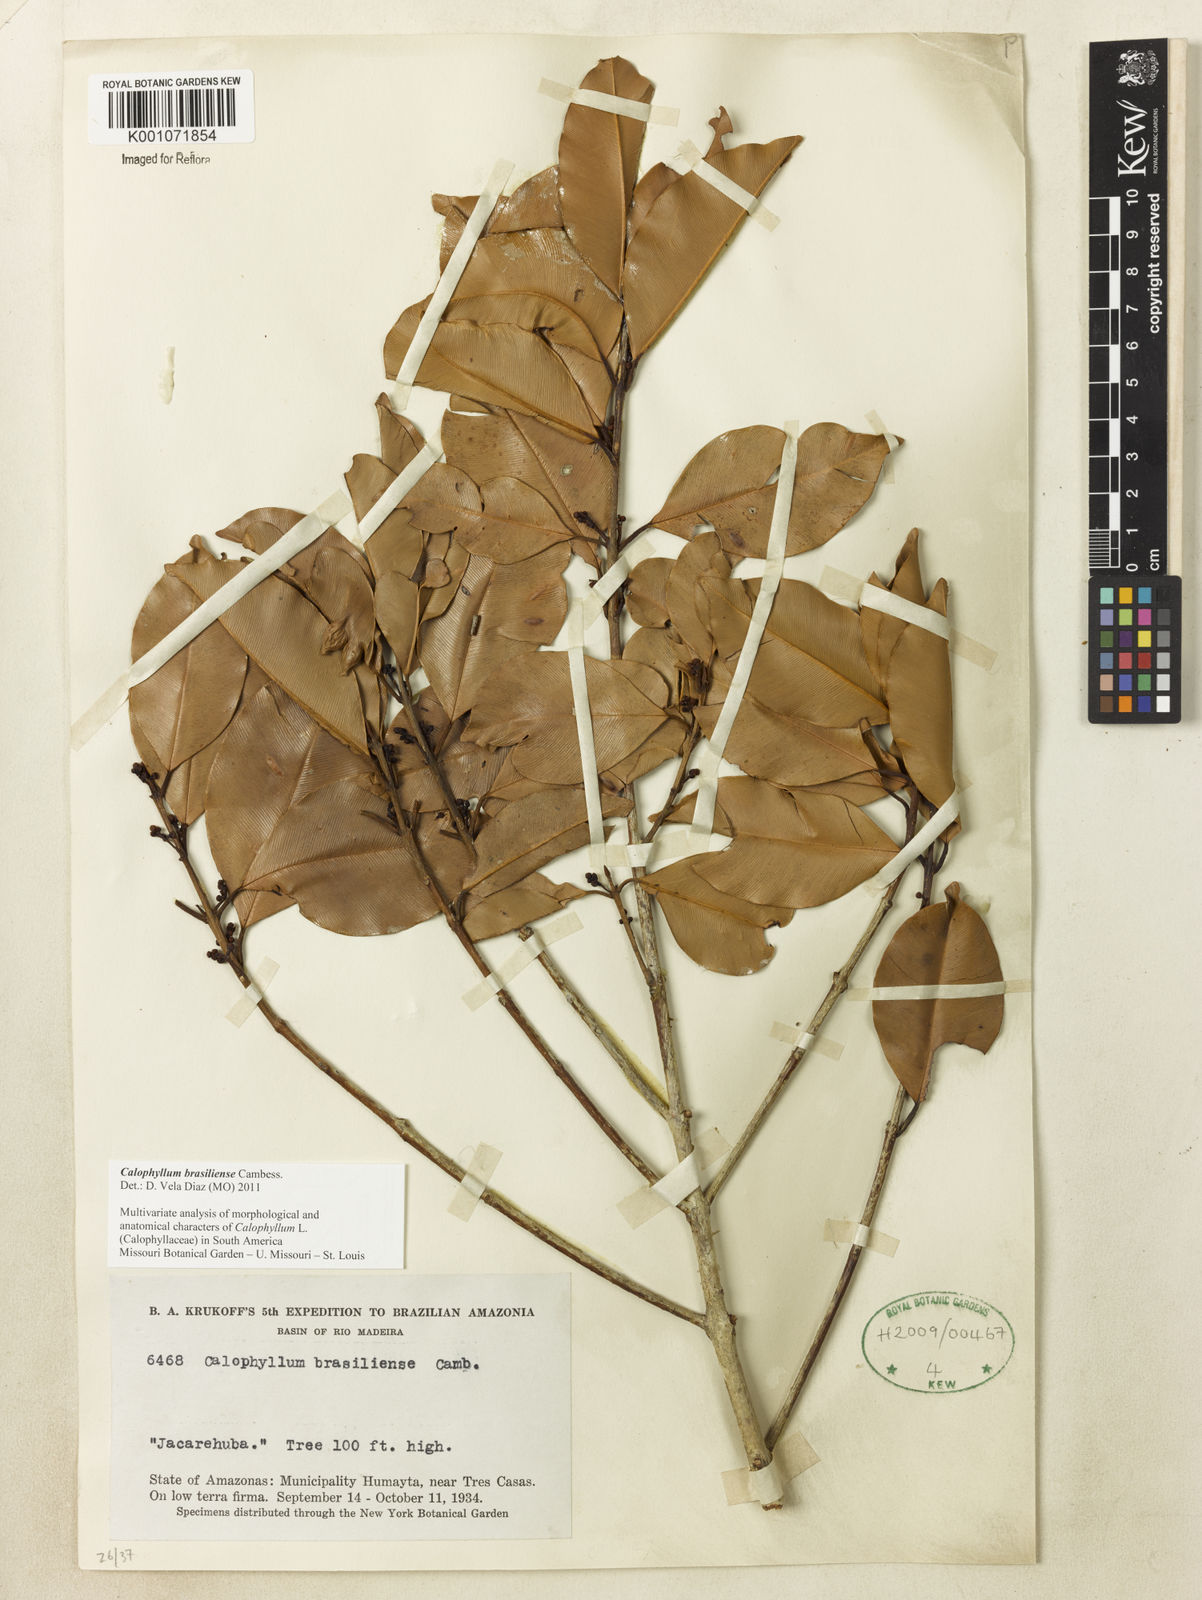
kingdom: Plantae
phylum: Tracheophyta
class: Magnoliopsida
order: Malpighiales
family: Calophyllaceae
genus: Calophyllum
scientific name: Calophyllum brasiliense
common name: Santa maria
